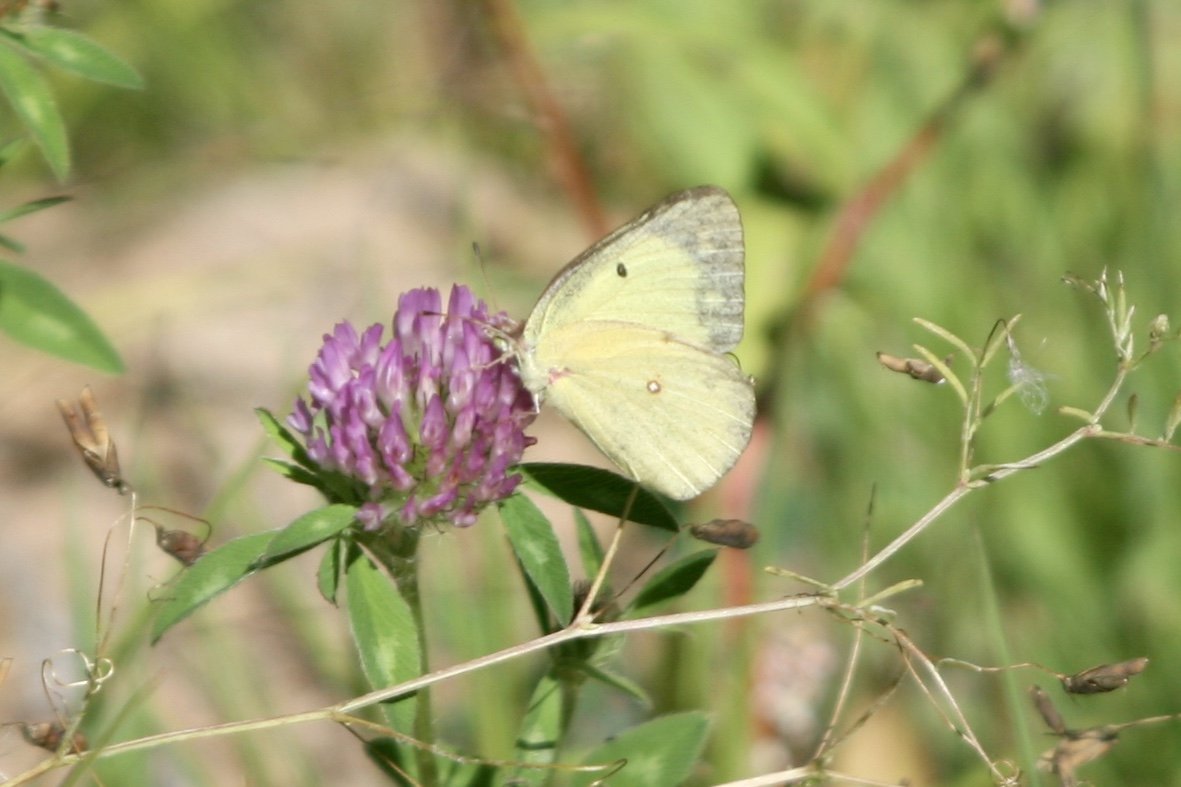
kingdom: Animalia
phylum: Arthropoda
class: Insecta
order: Lepidoptera
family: Pieridae
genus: Colias
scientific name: Colias philodice
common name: Clouded Sulphur
